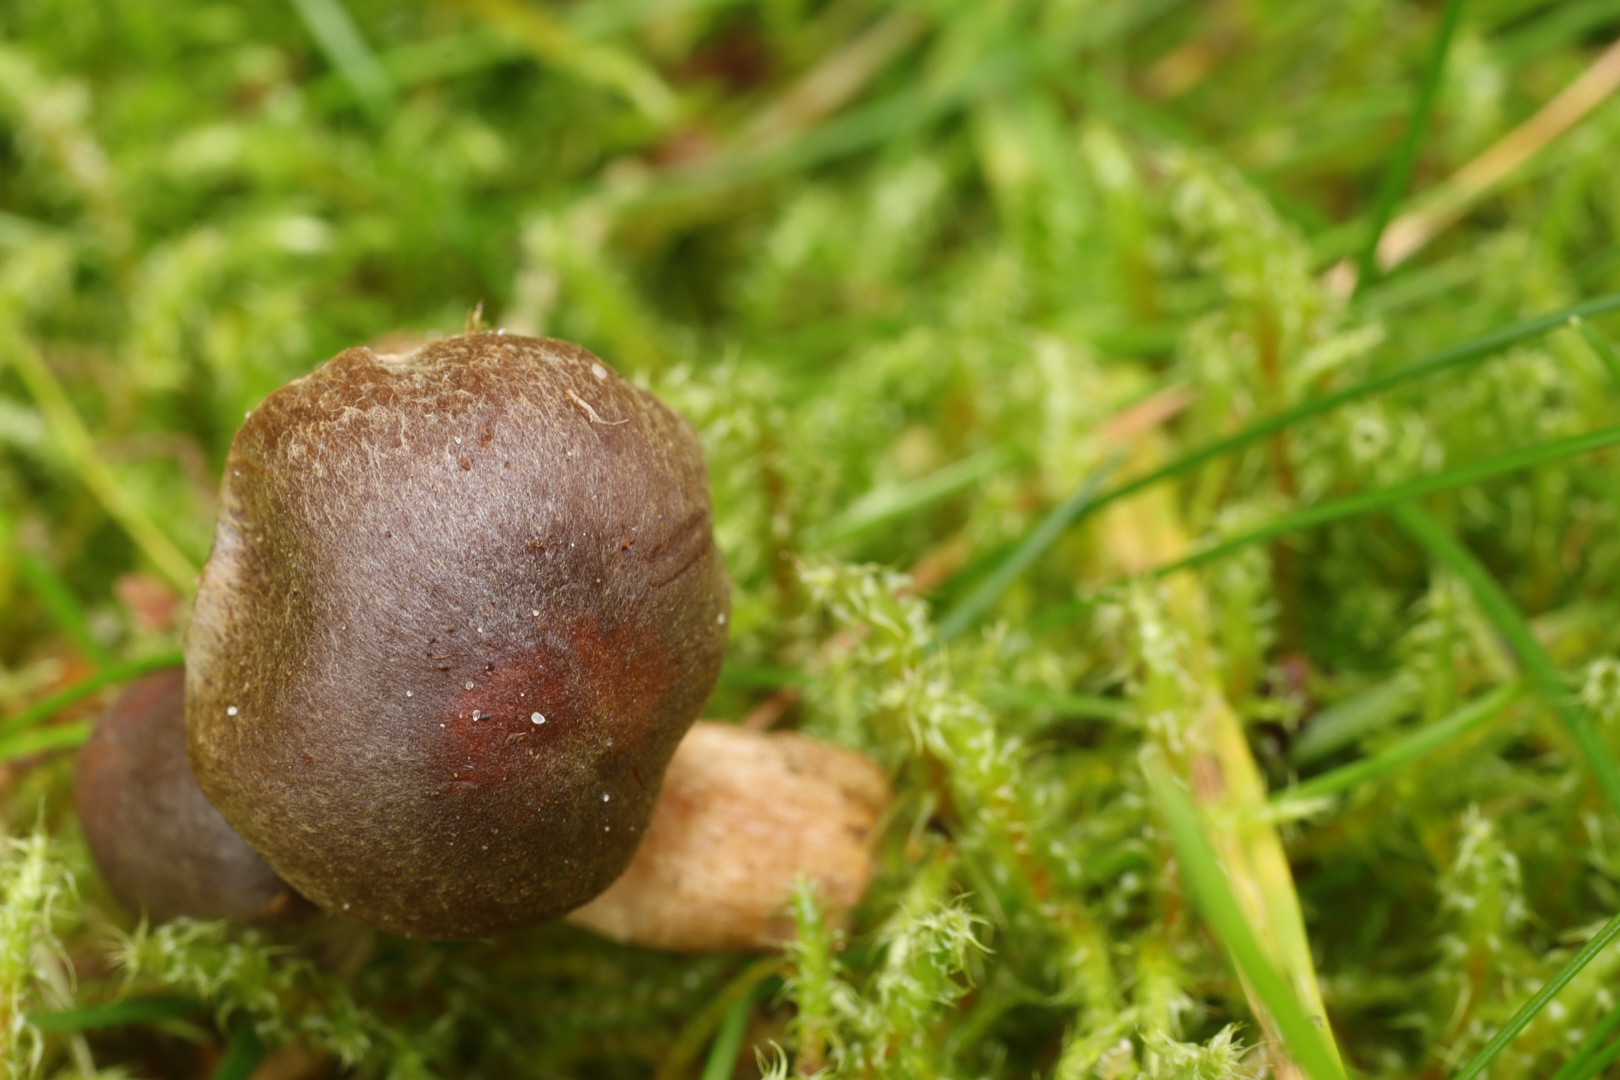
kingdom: Fungi
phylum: Basidiomycota
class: Agaricomycetes
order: Agaricales
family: Cortinariaceae
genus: Cortinarius
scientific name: Cortinarius
